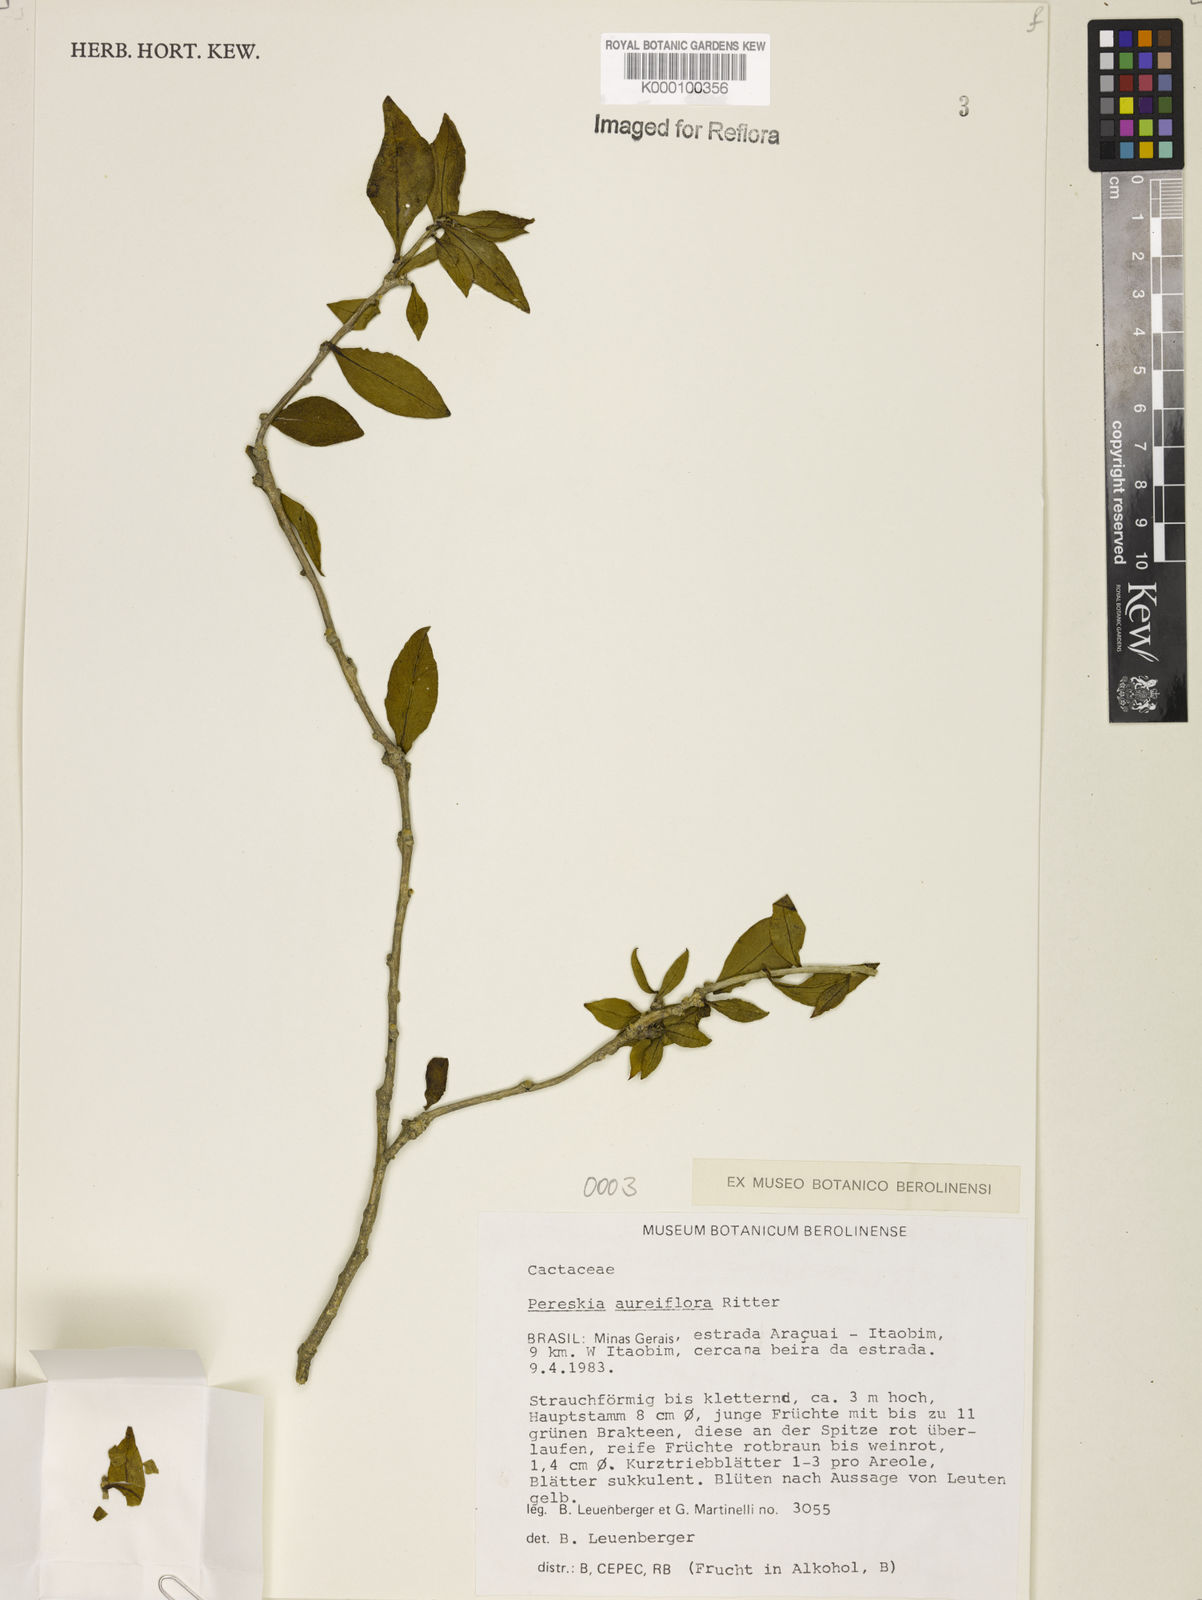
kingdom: Plantae
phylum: Tracheophyta
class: Magnoliopsida
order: Caryophyllales
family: Cactaceae
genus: Leuenbergeria
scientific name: Leuenbergeria aureiflora
